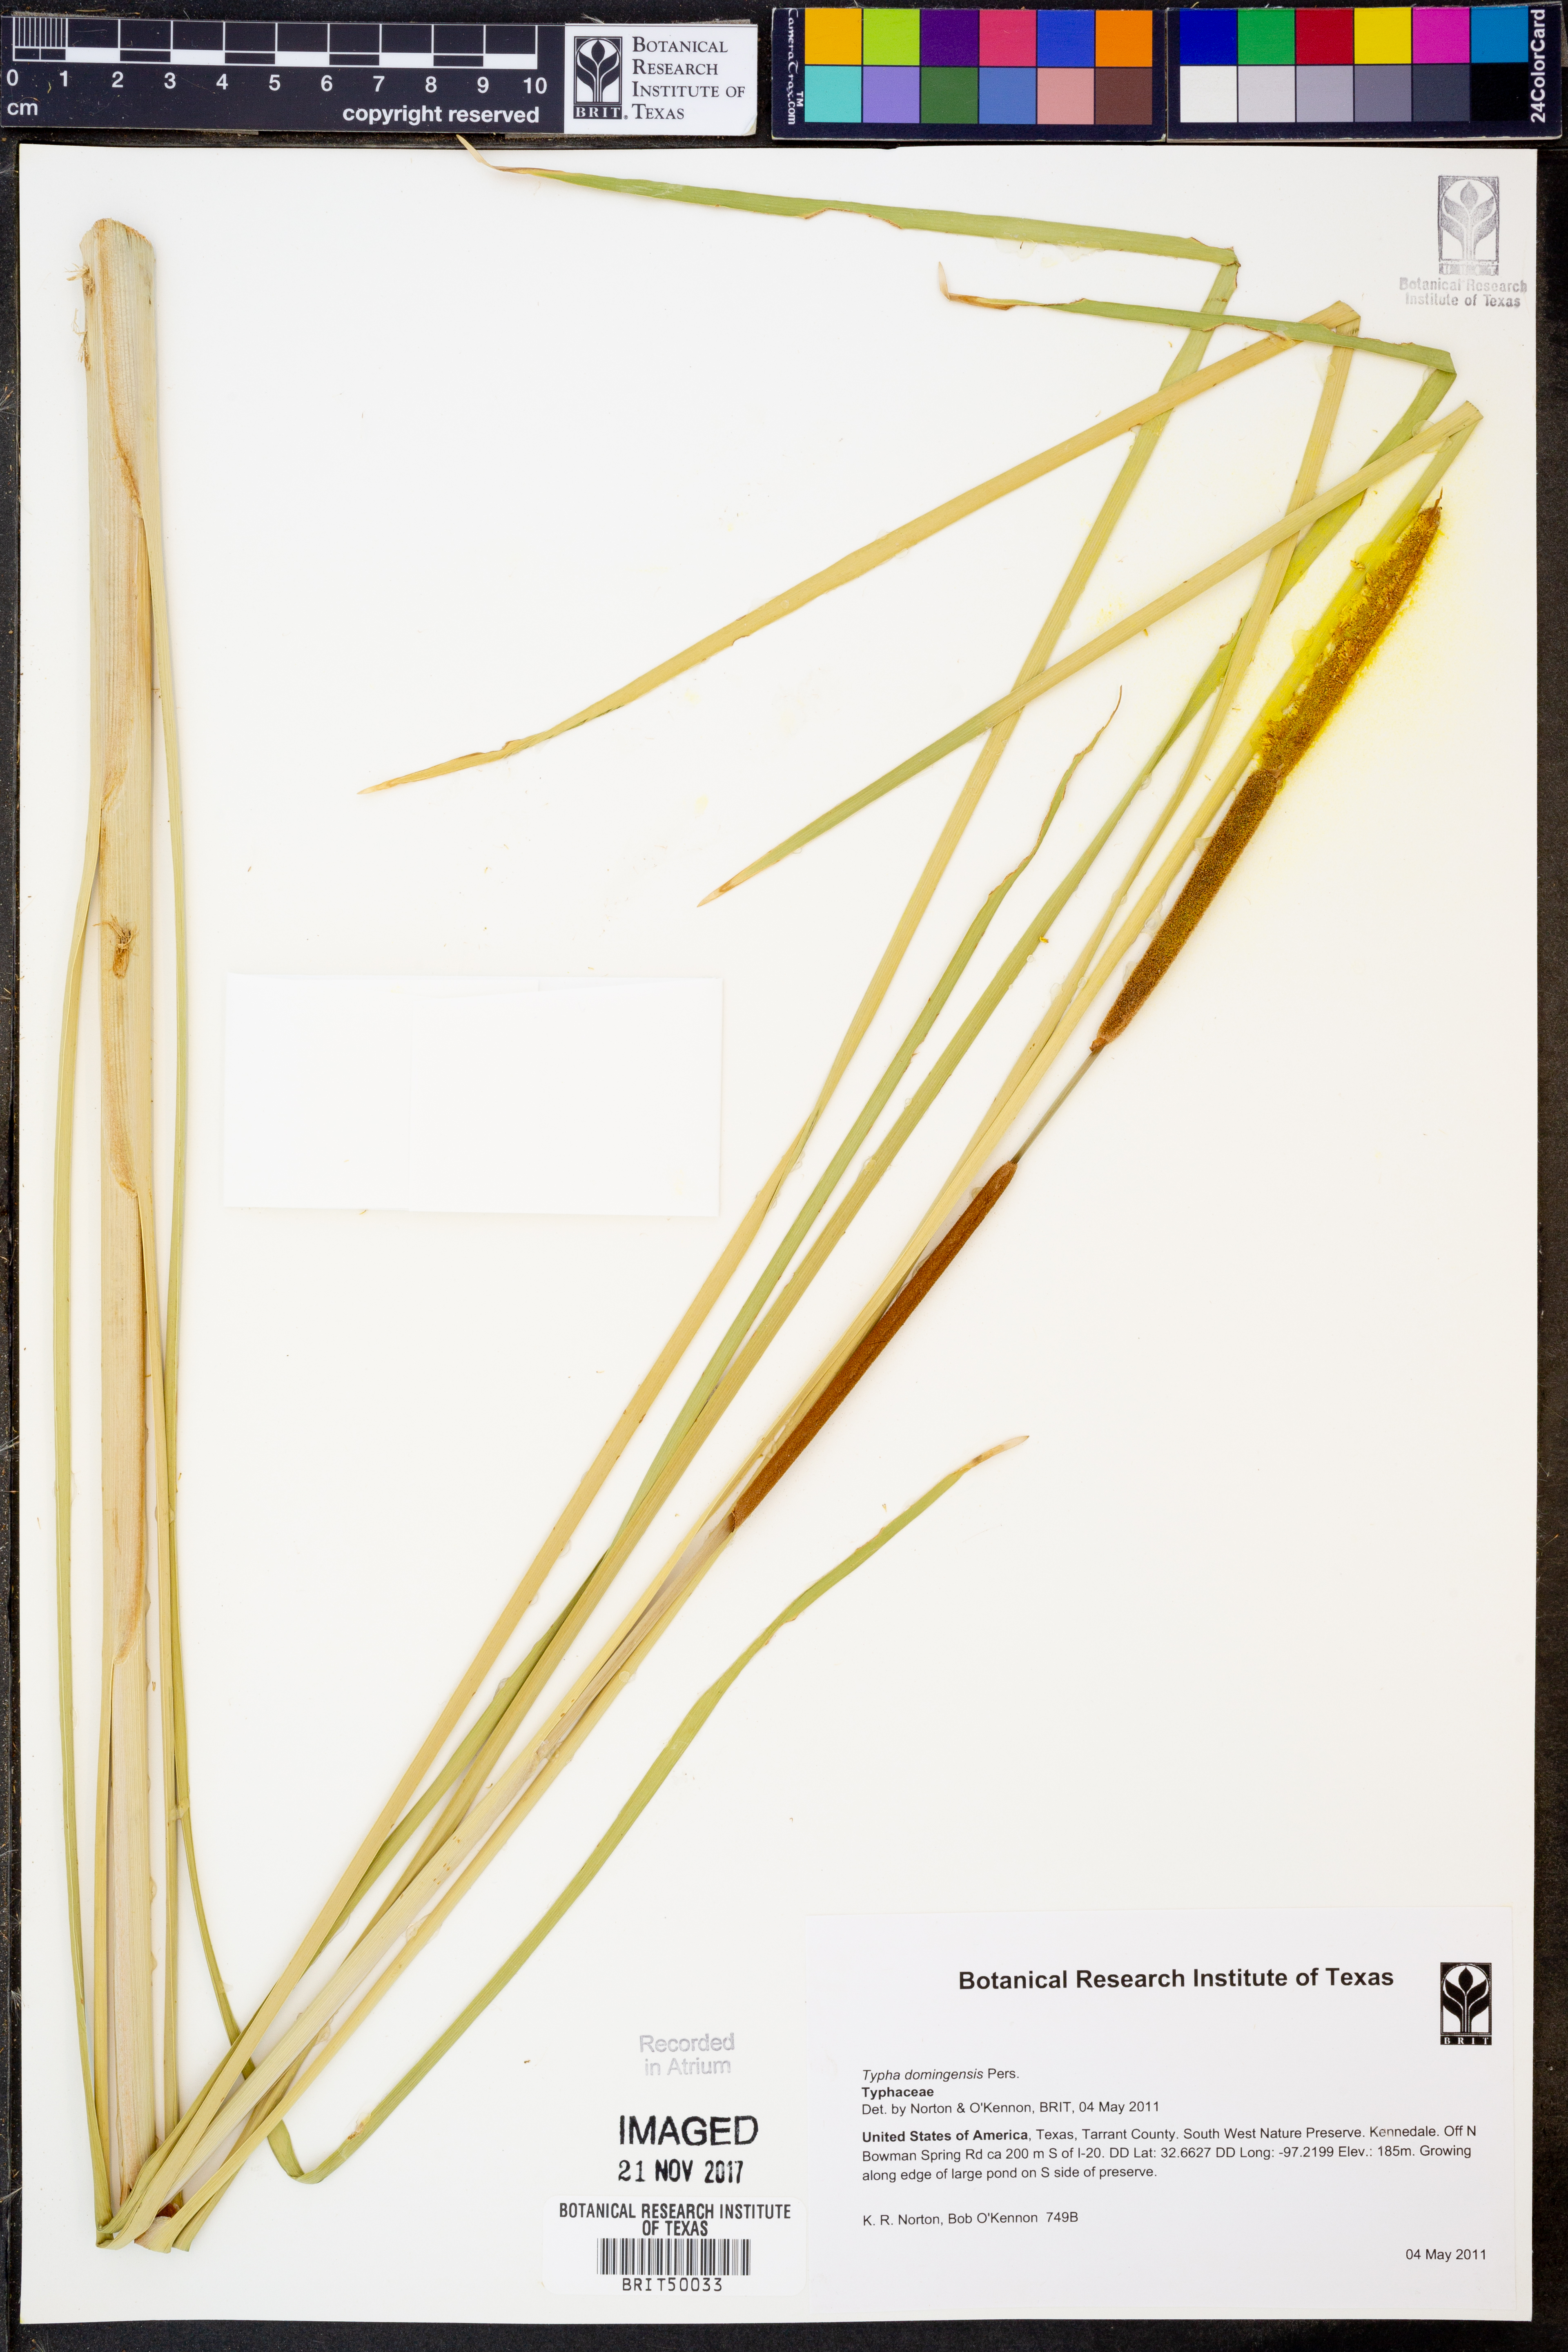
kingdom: Plantae
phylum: Tracheophyta
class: Liliopsida
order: Poales
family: Typhaceae
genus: Typha
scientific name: Typha domingensis
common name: Southern cattail
